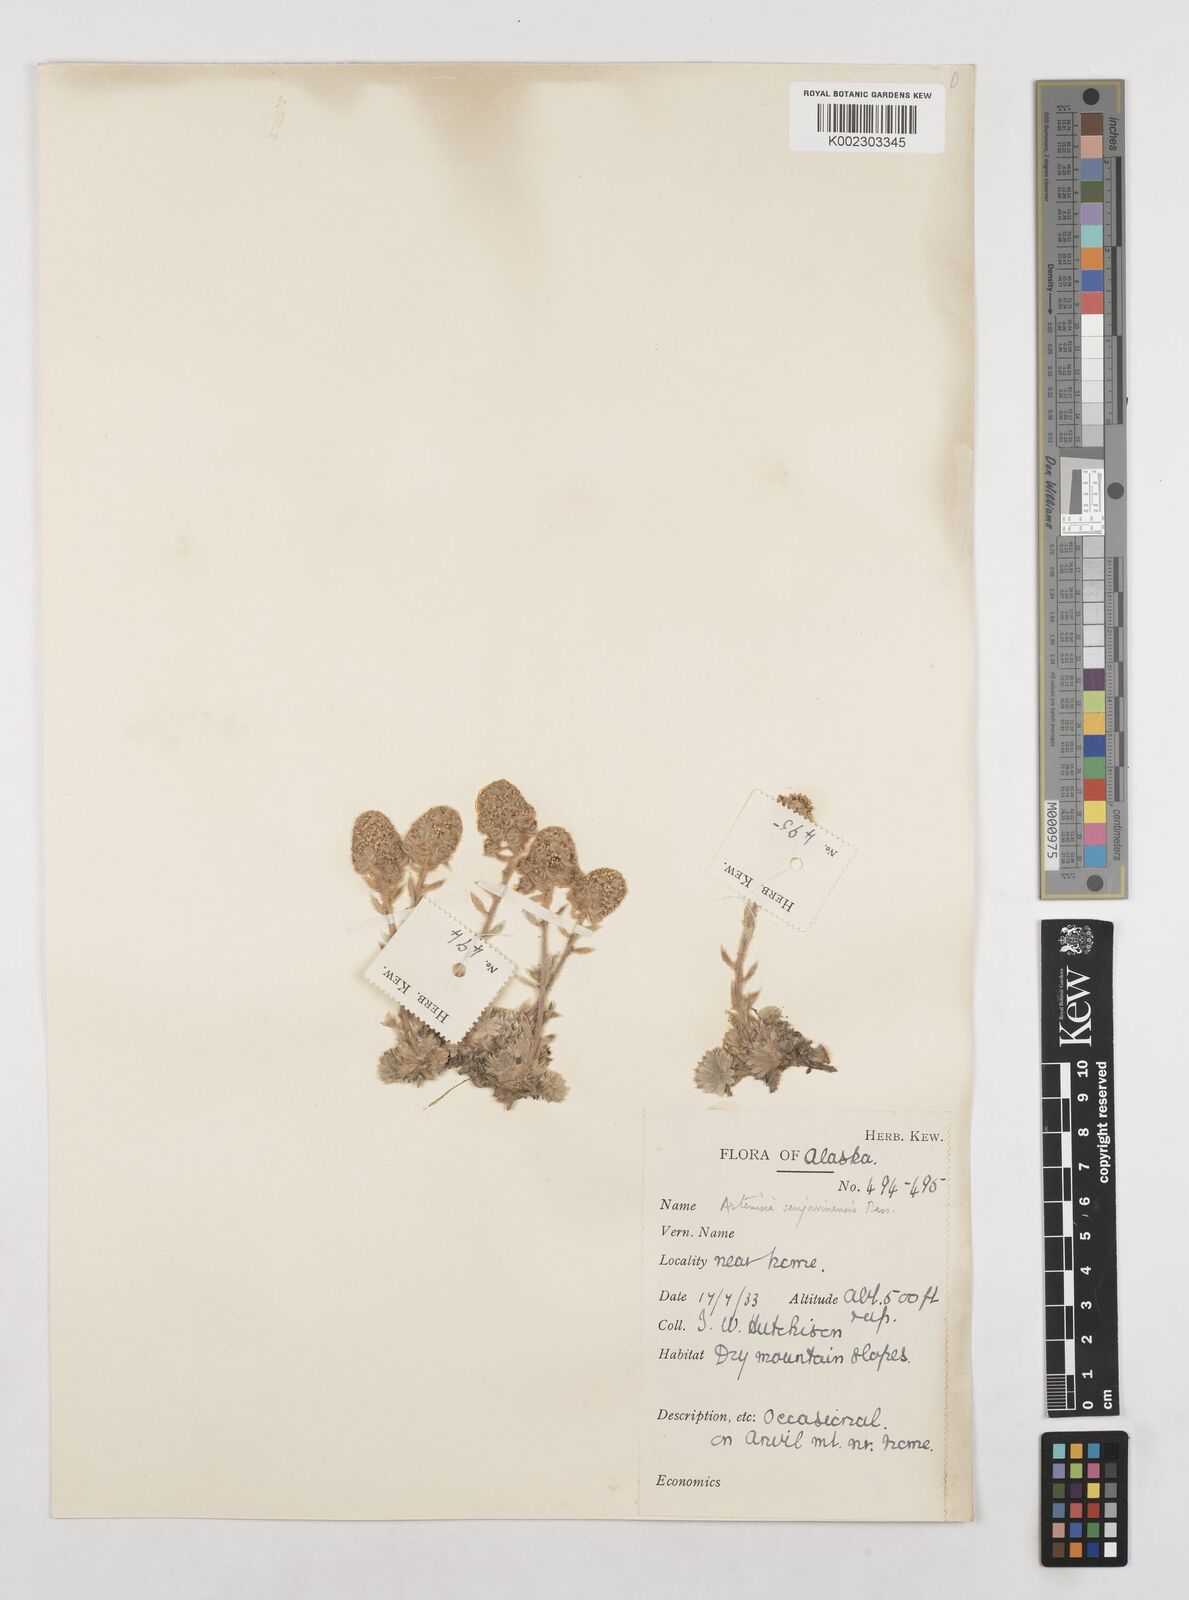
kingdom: Plantae
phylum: Tracheophyta
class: Magnoliopsida
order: Asterales
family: Asteraceae
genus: Artemisia
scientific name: Artemisia senjavinensis
